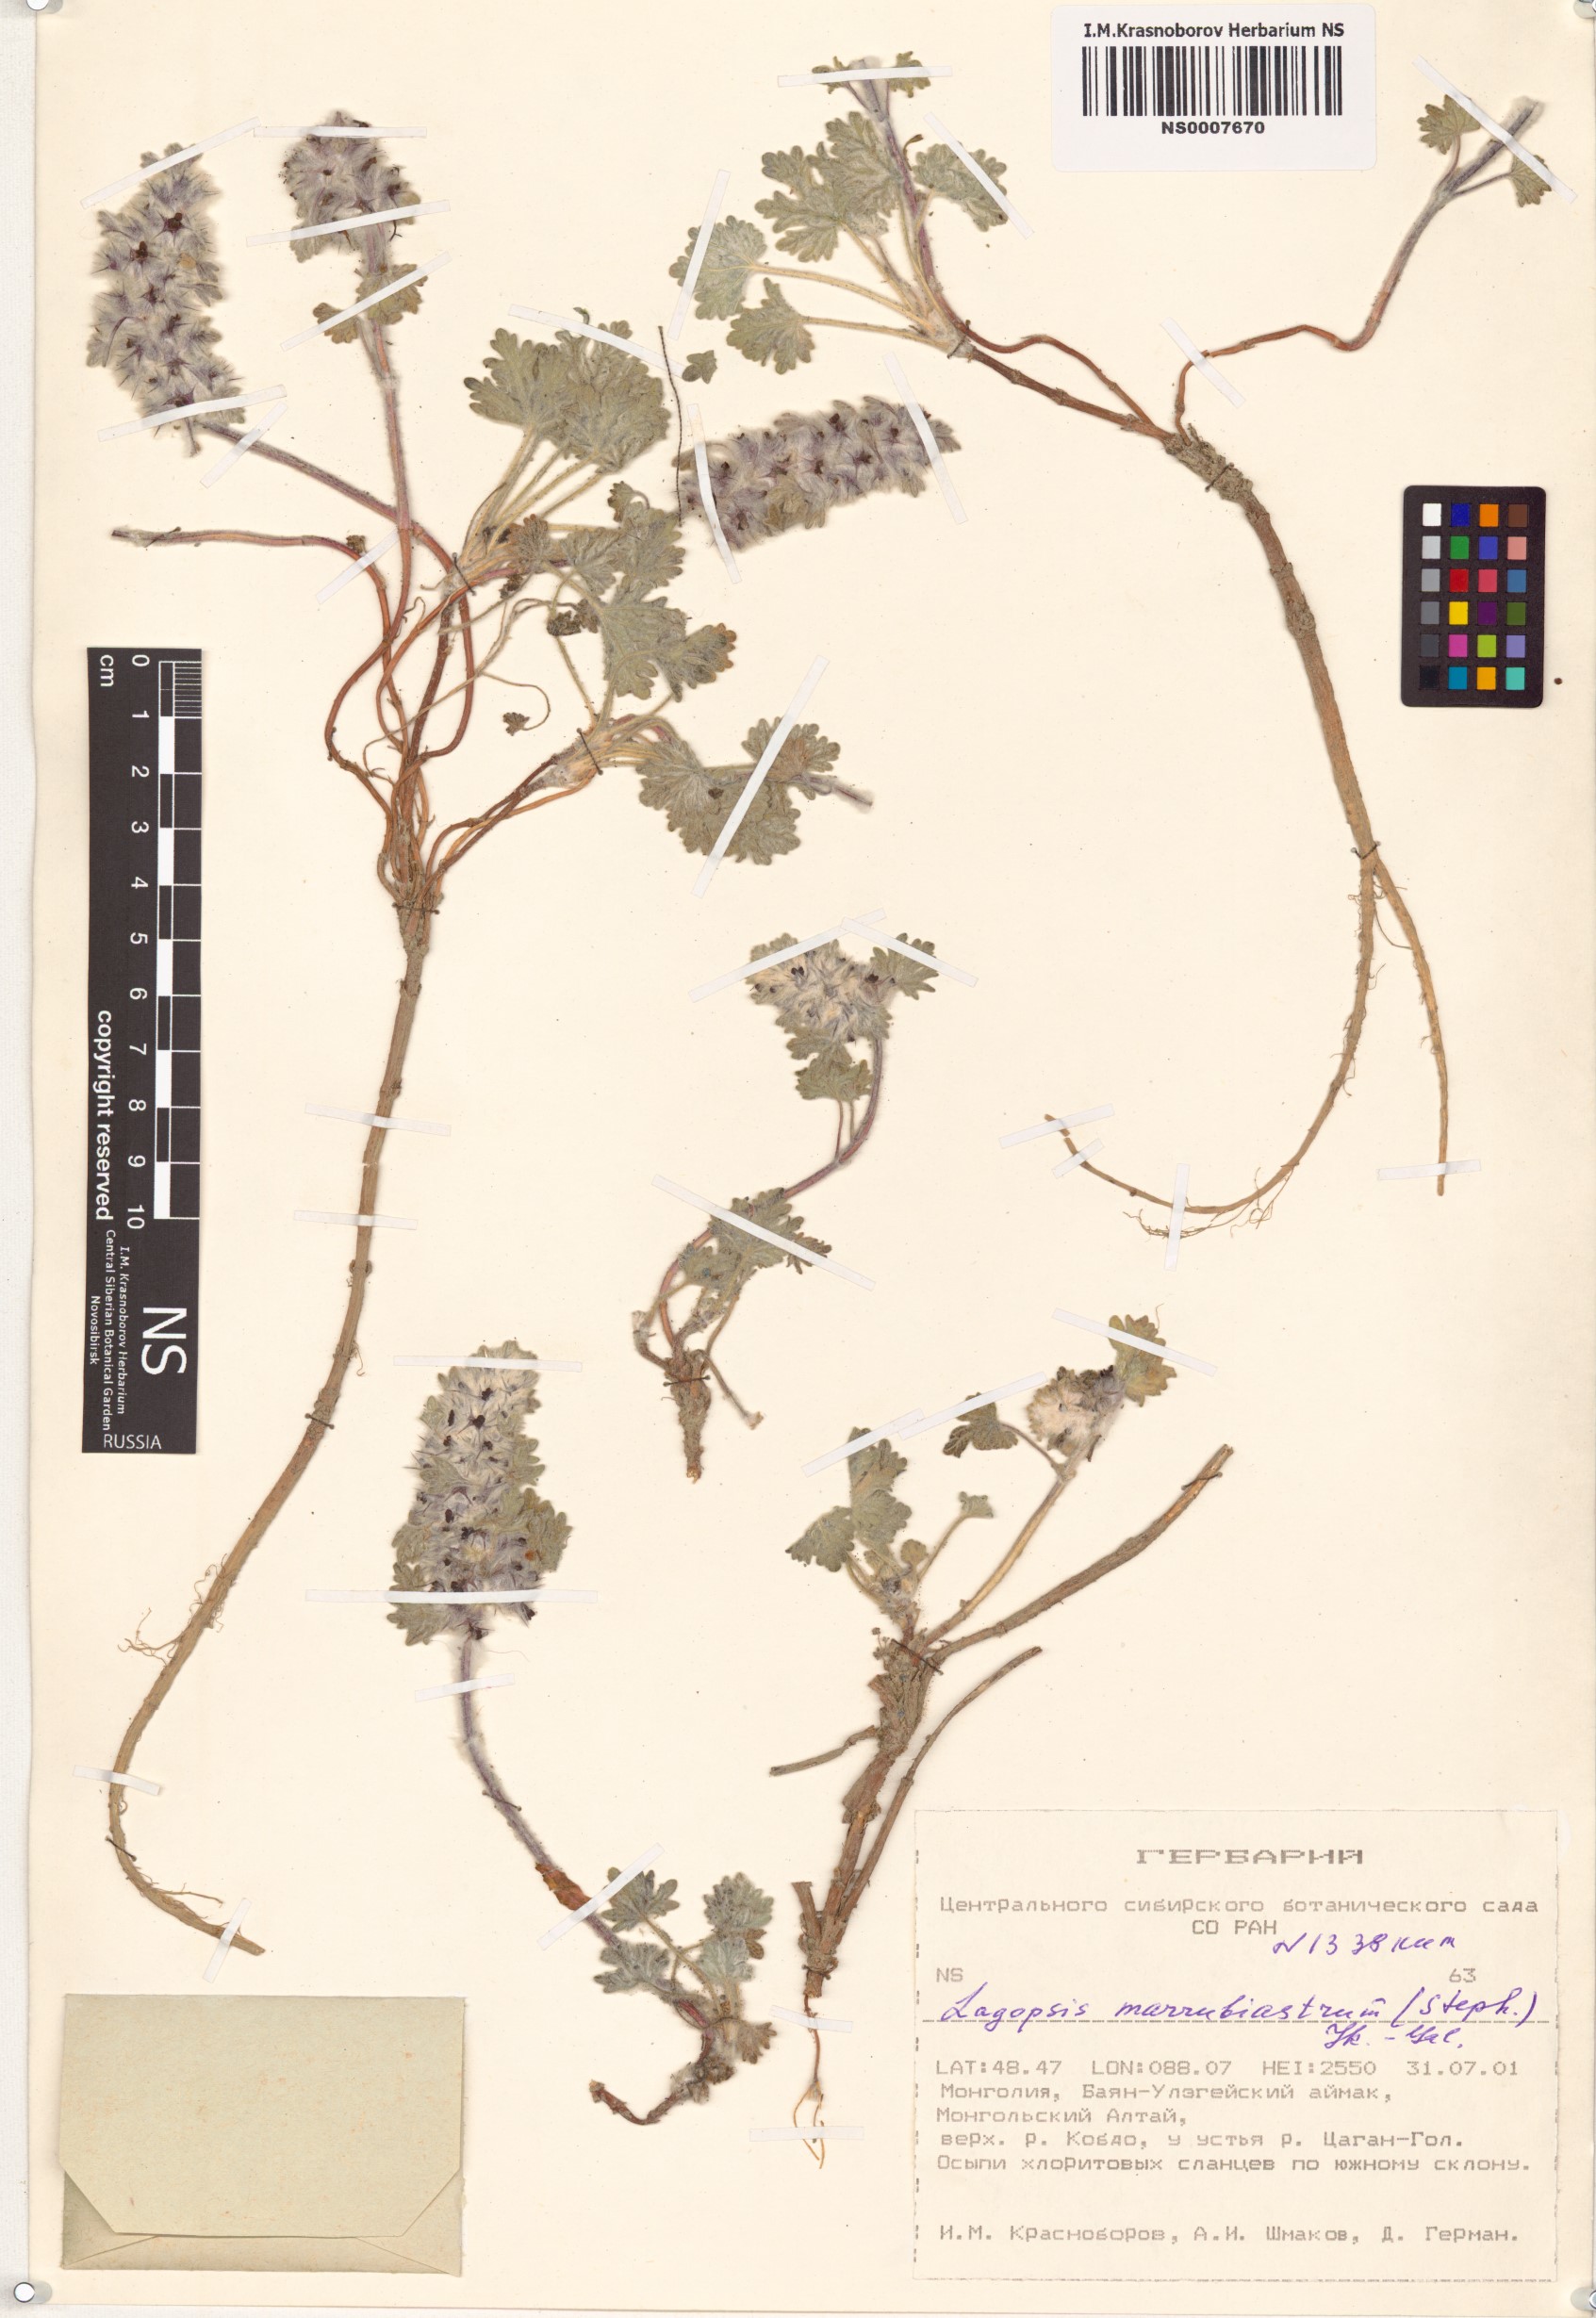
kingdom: Plantae
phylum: Tracheophyta
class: Magnoliopsida
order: Lamiales
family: Lamiaceae
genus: Lagopsis
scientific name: Lagopsis marrubiastrum
